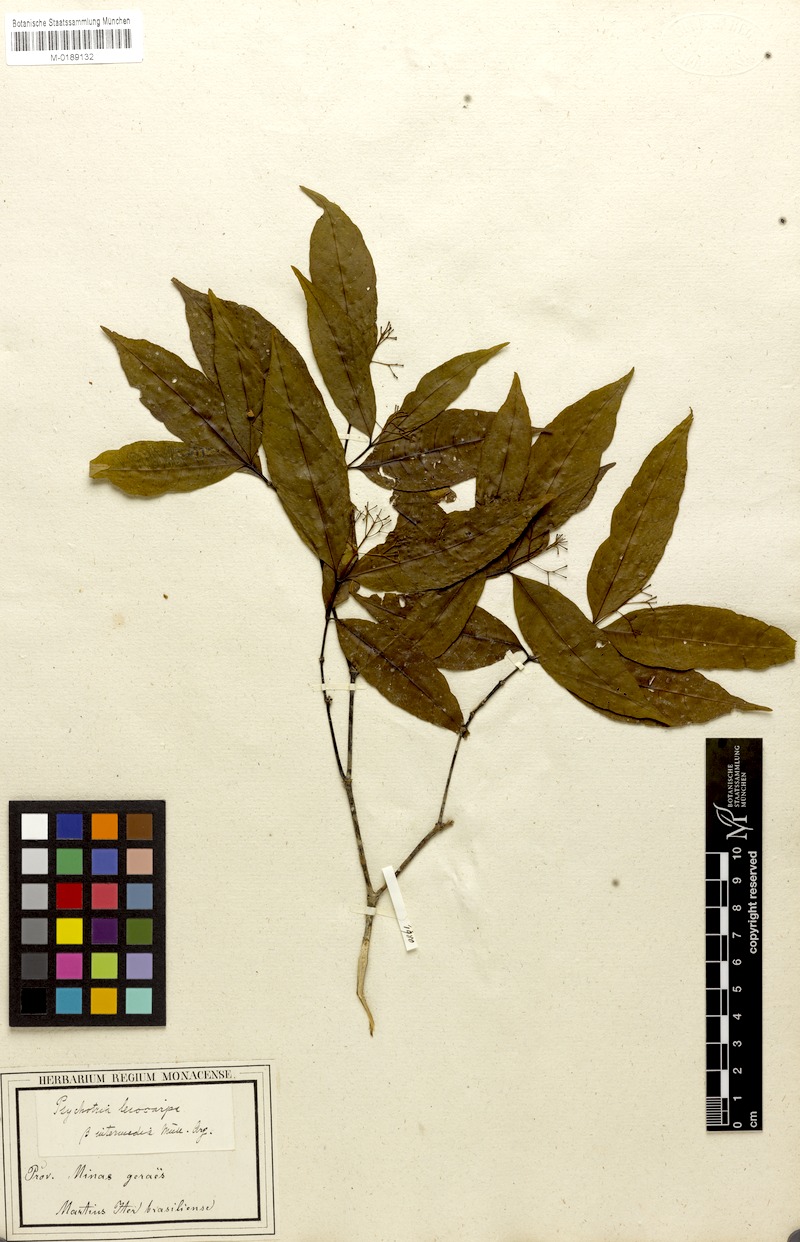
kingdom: Plantae
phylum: Tracheophyta
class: Magnoliopsida
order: Gentianales
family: Rubiaceae
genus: Psychotria
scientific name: Psychotria leiocarpa
